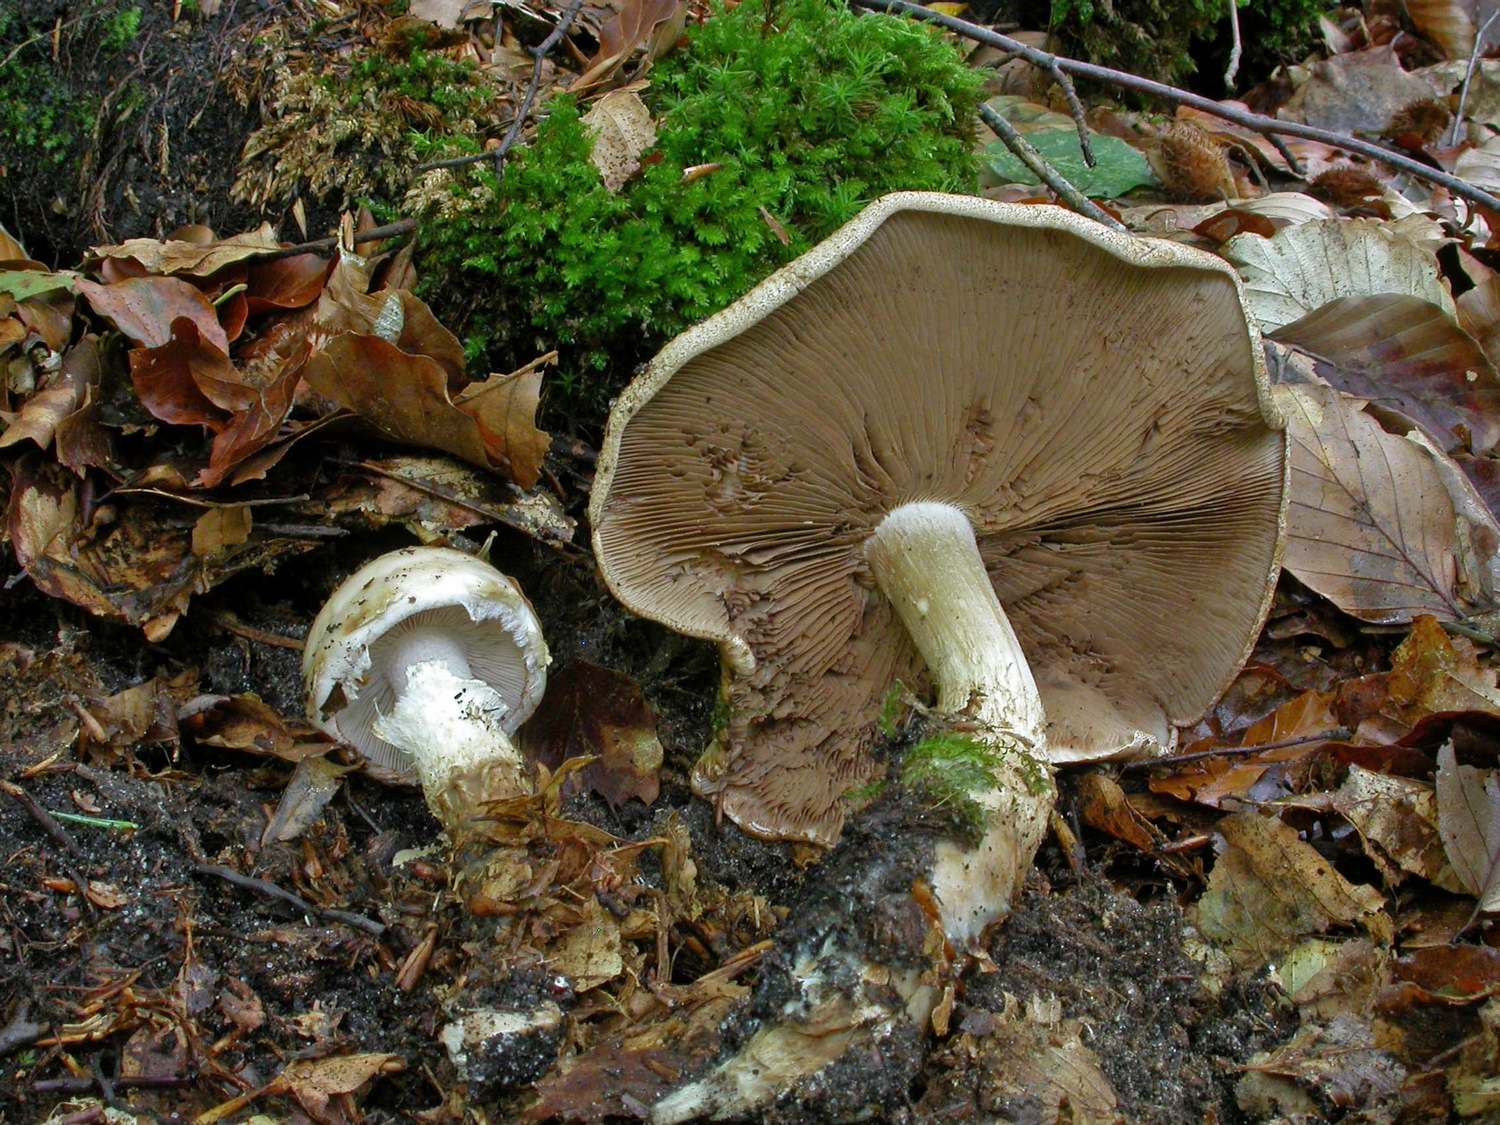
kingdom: Fungi
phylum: Basidiomycota
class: Agaricomycetes
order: Agaricales
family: Hymenogastraceae
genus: Hebeloma
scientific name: Hebeloma radicosum
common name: pælerods-tåreblad
